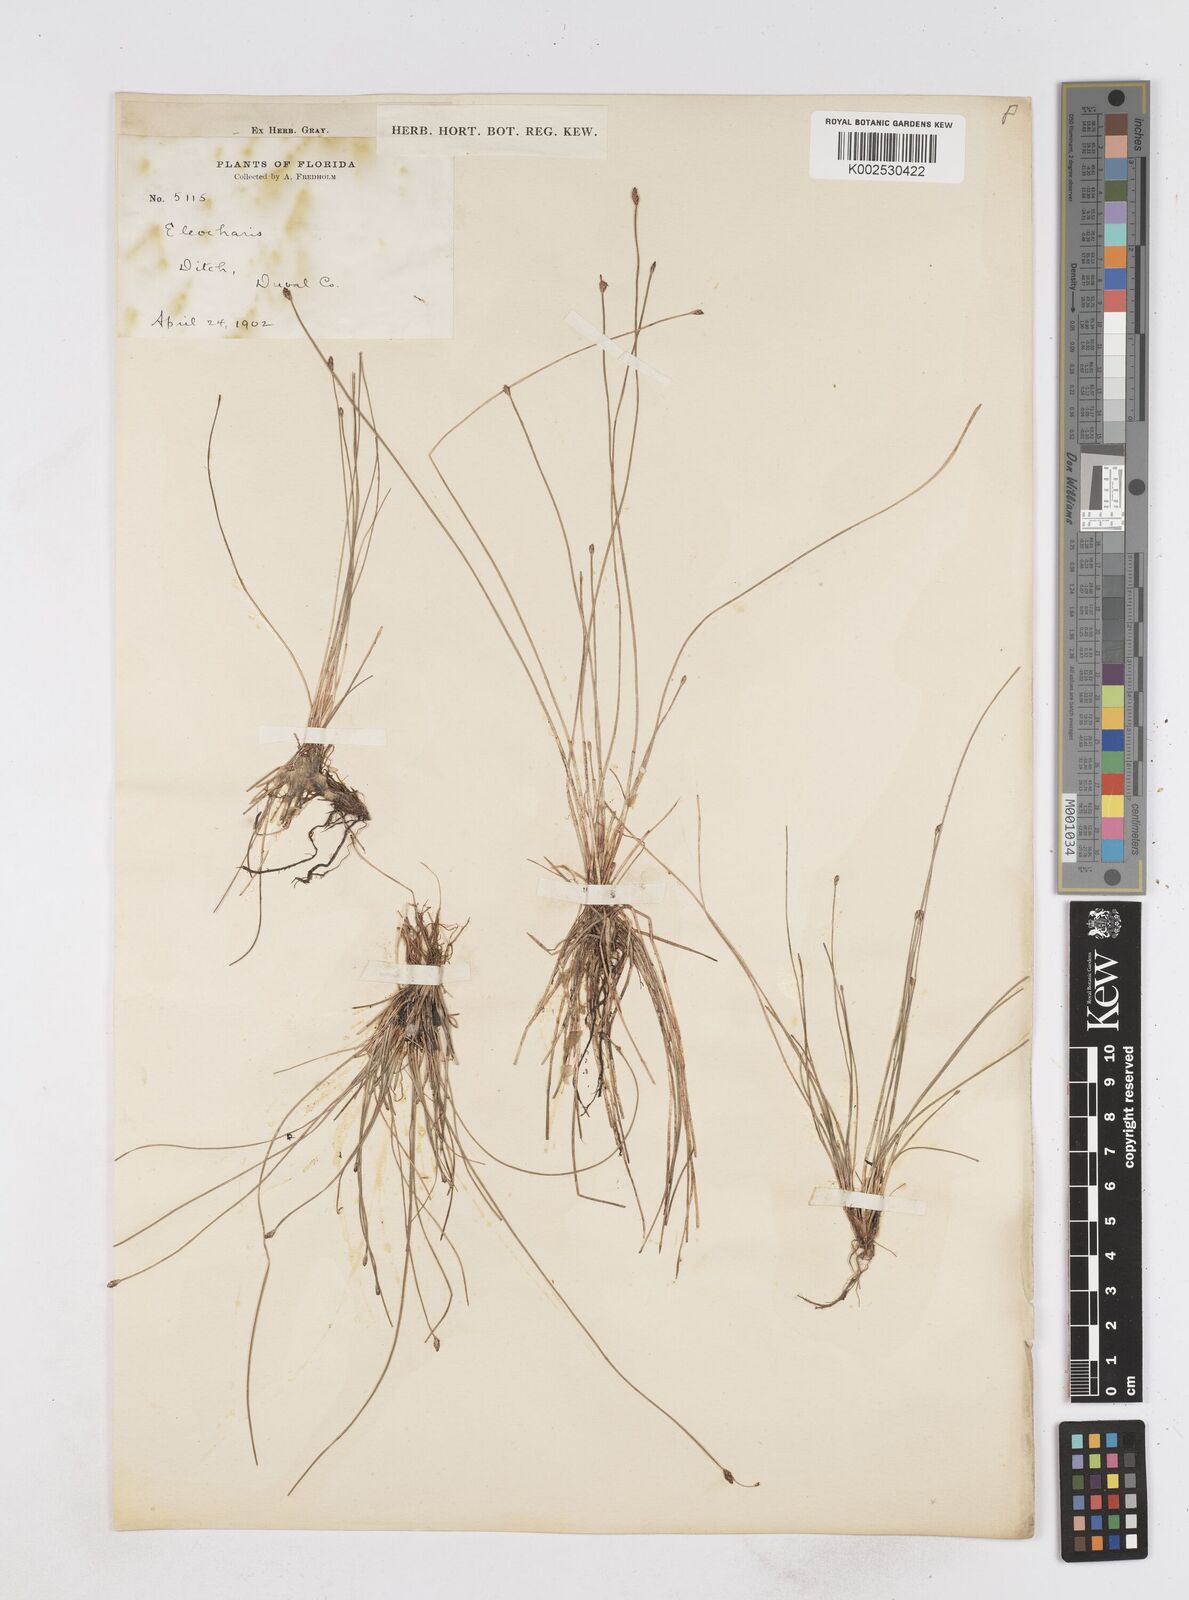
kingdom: Plantae
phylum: Tracheophyta
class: Liliopsida
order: Poales
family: Cyperaceae
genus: Eleocharis
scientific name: Eleocharis
